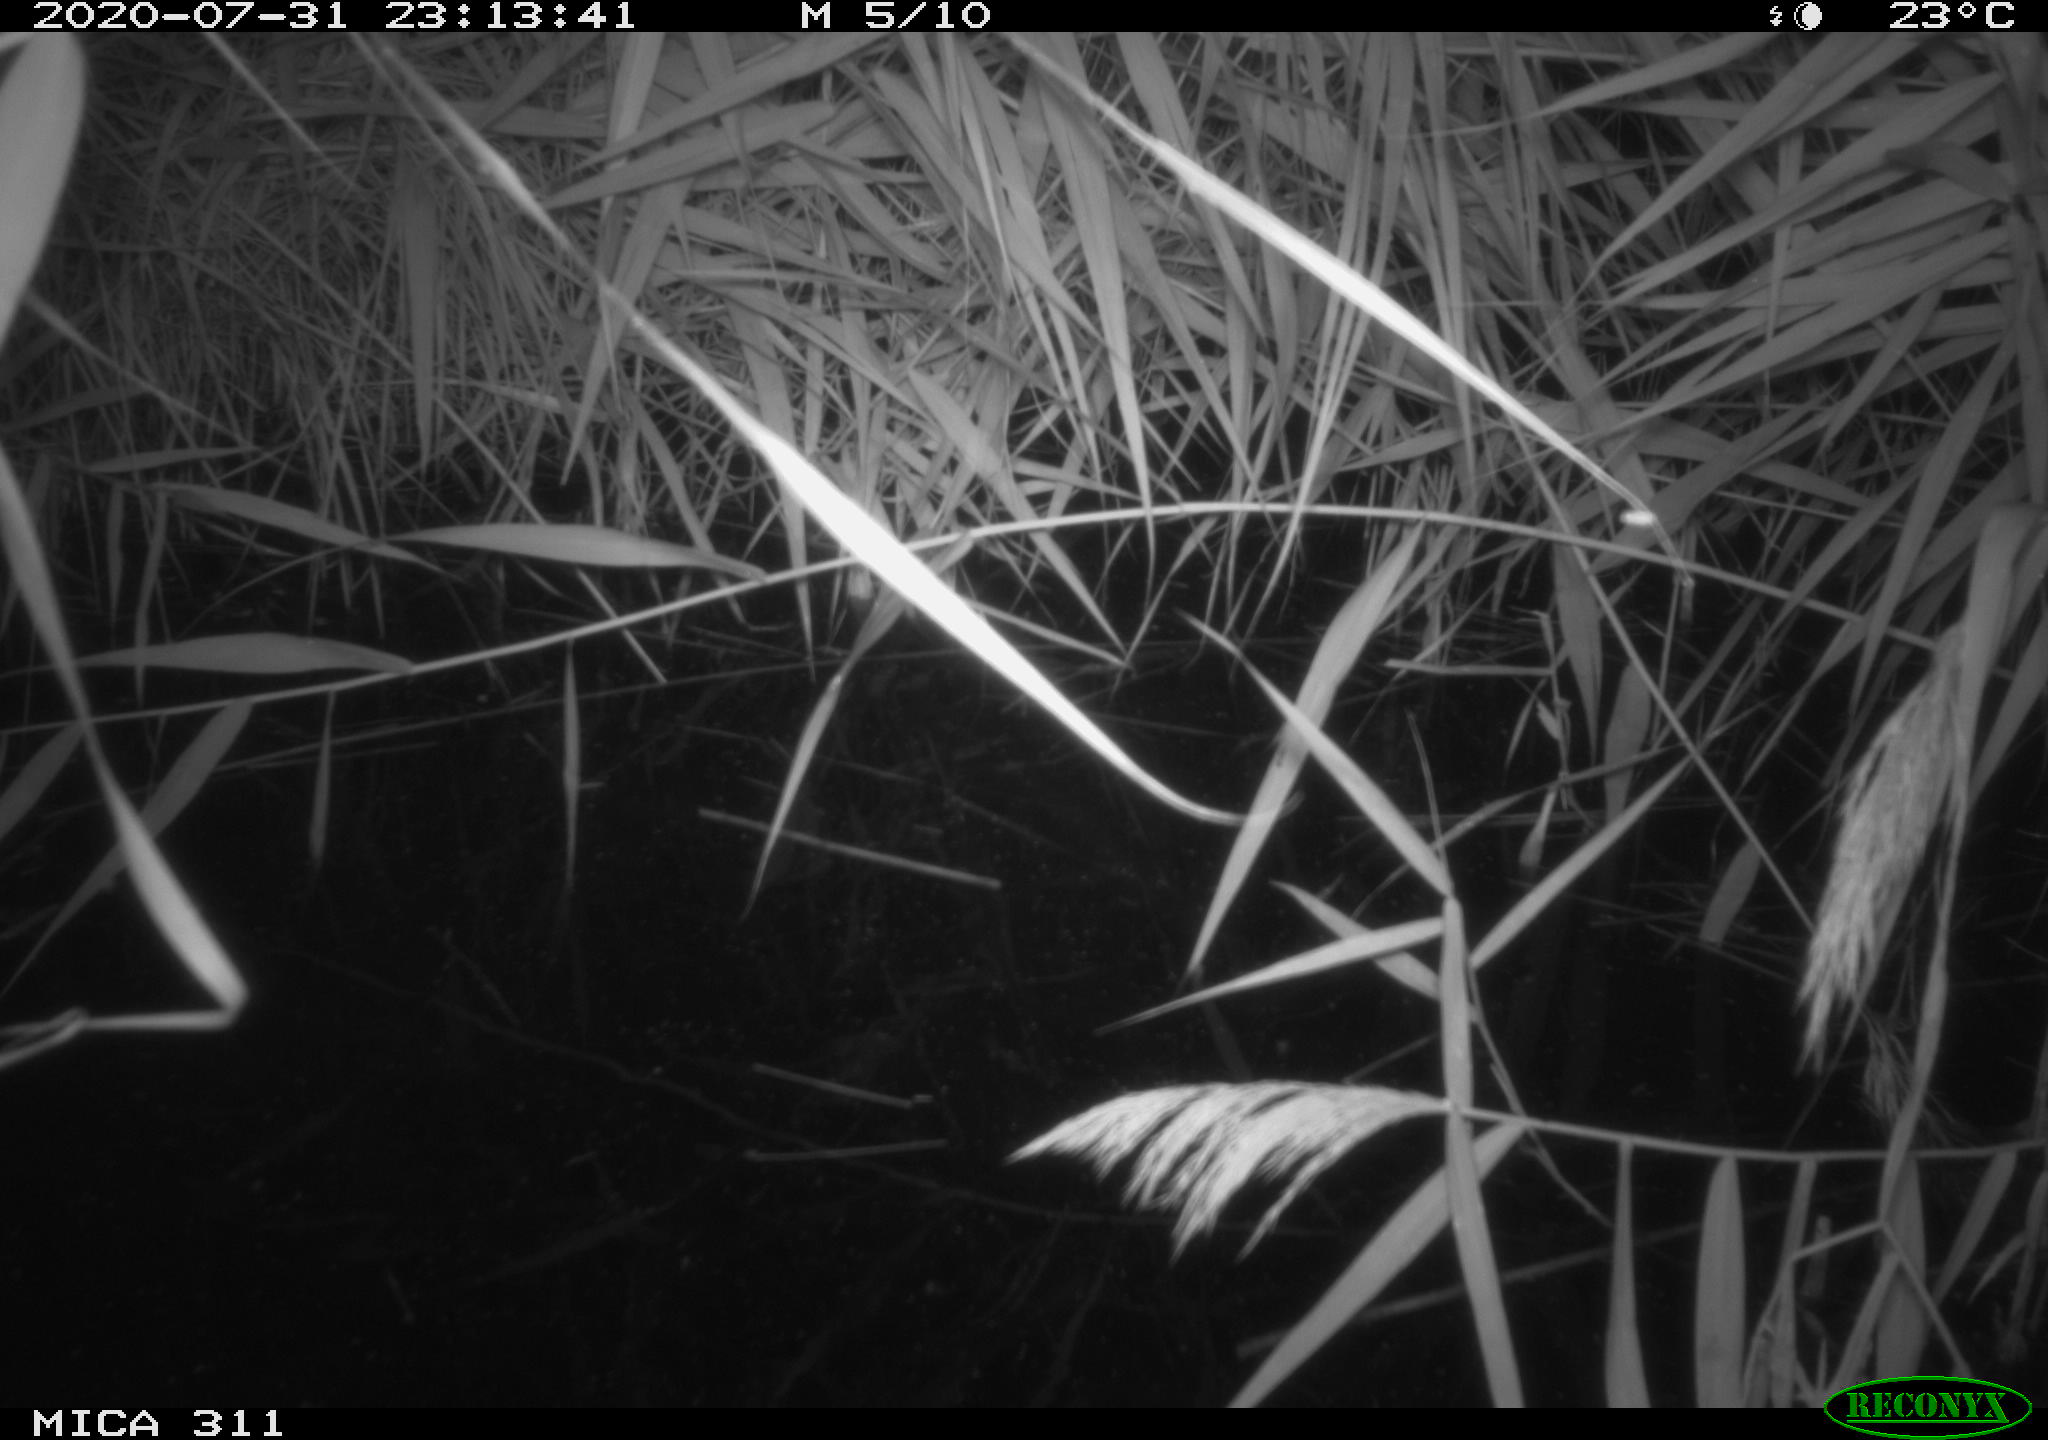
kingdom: Animalia
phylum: Chordata
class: Mammalia
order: Rodentia
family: Muridae
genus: Rattus
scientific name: Rattus norvegicus
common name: Brown rat
